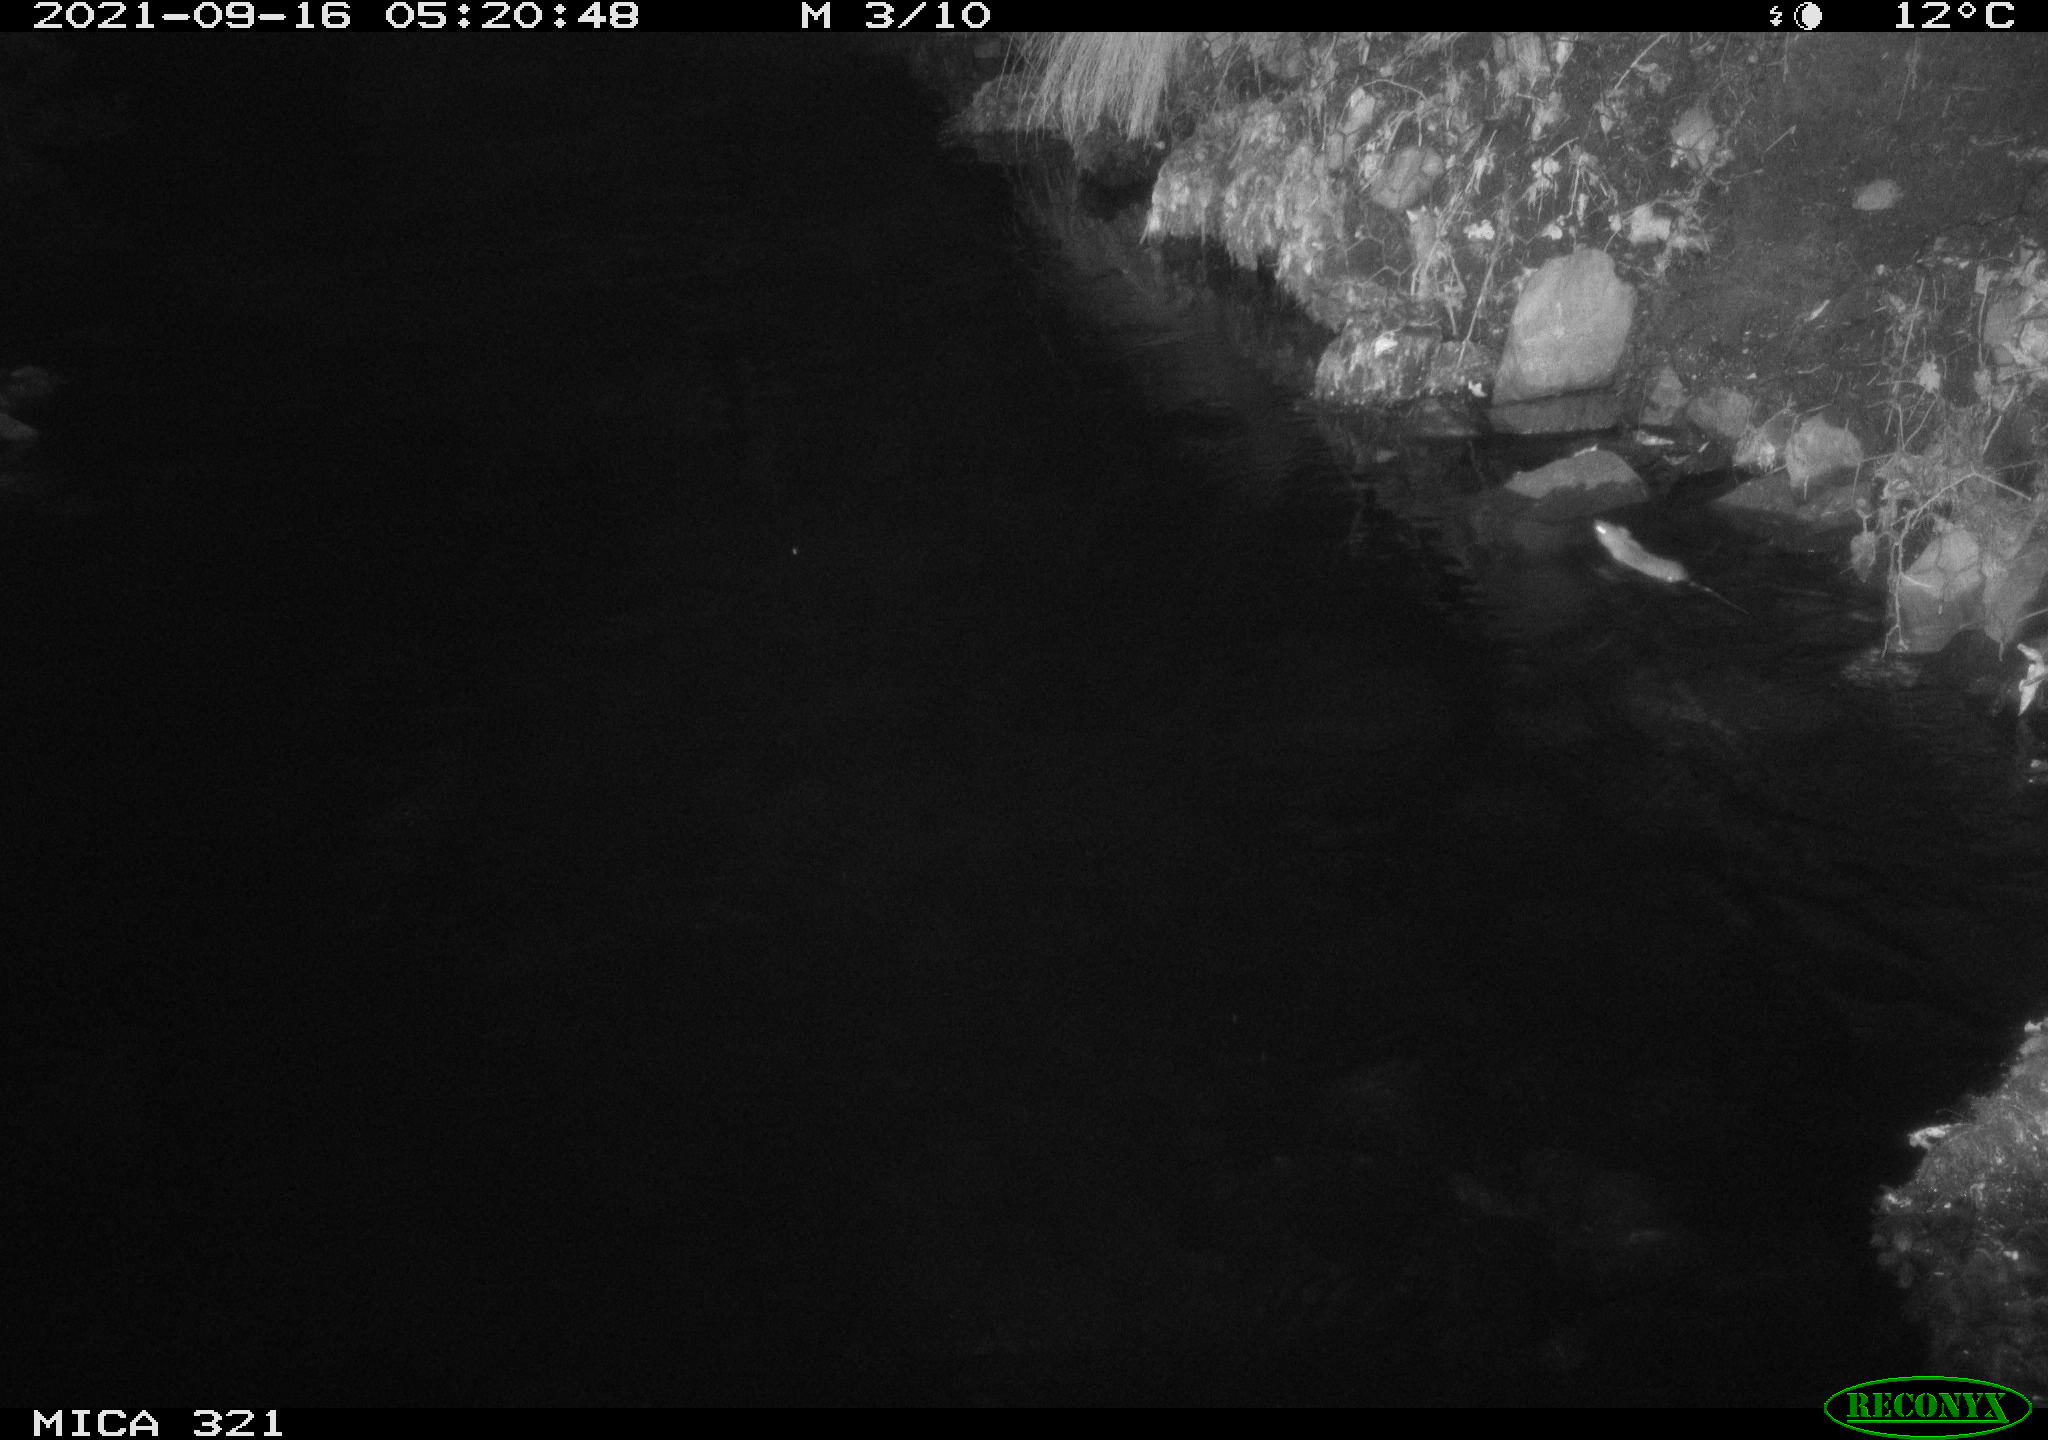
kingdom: Animalia
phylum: Chordata
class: Mammalia
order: Rodentia
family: Muridae
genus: Rattus
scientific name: Rattus norvegicus
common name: Brown rat
